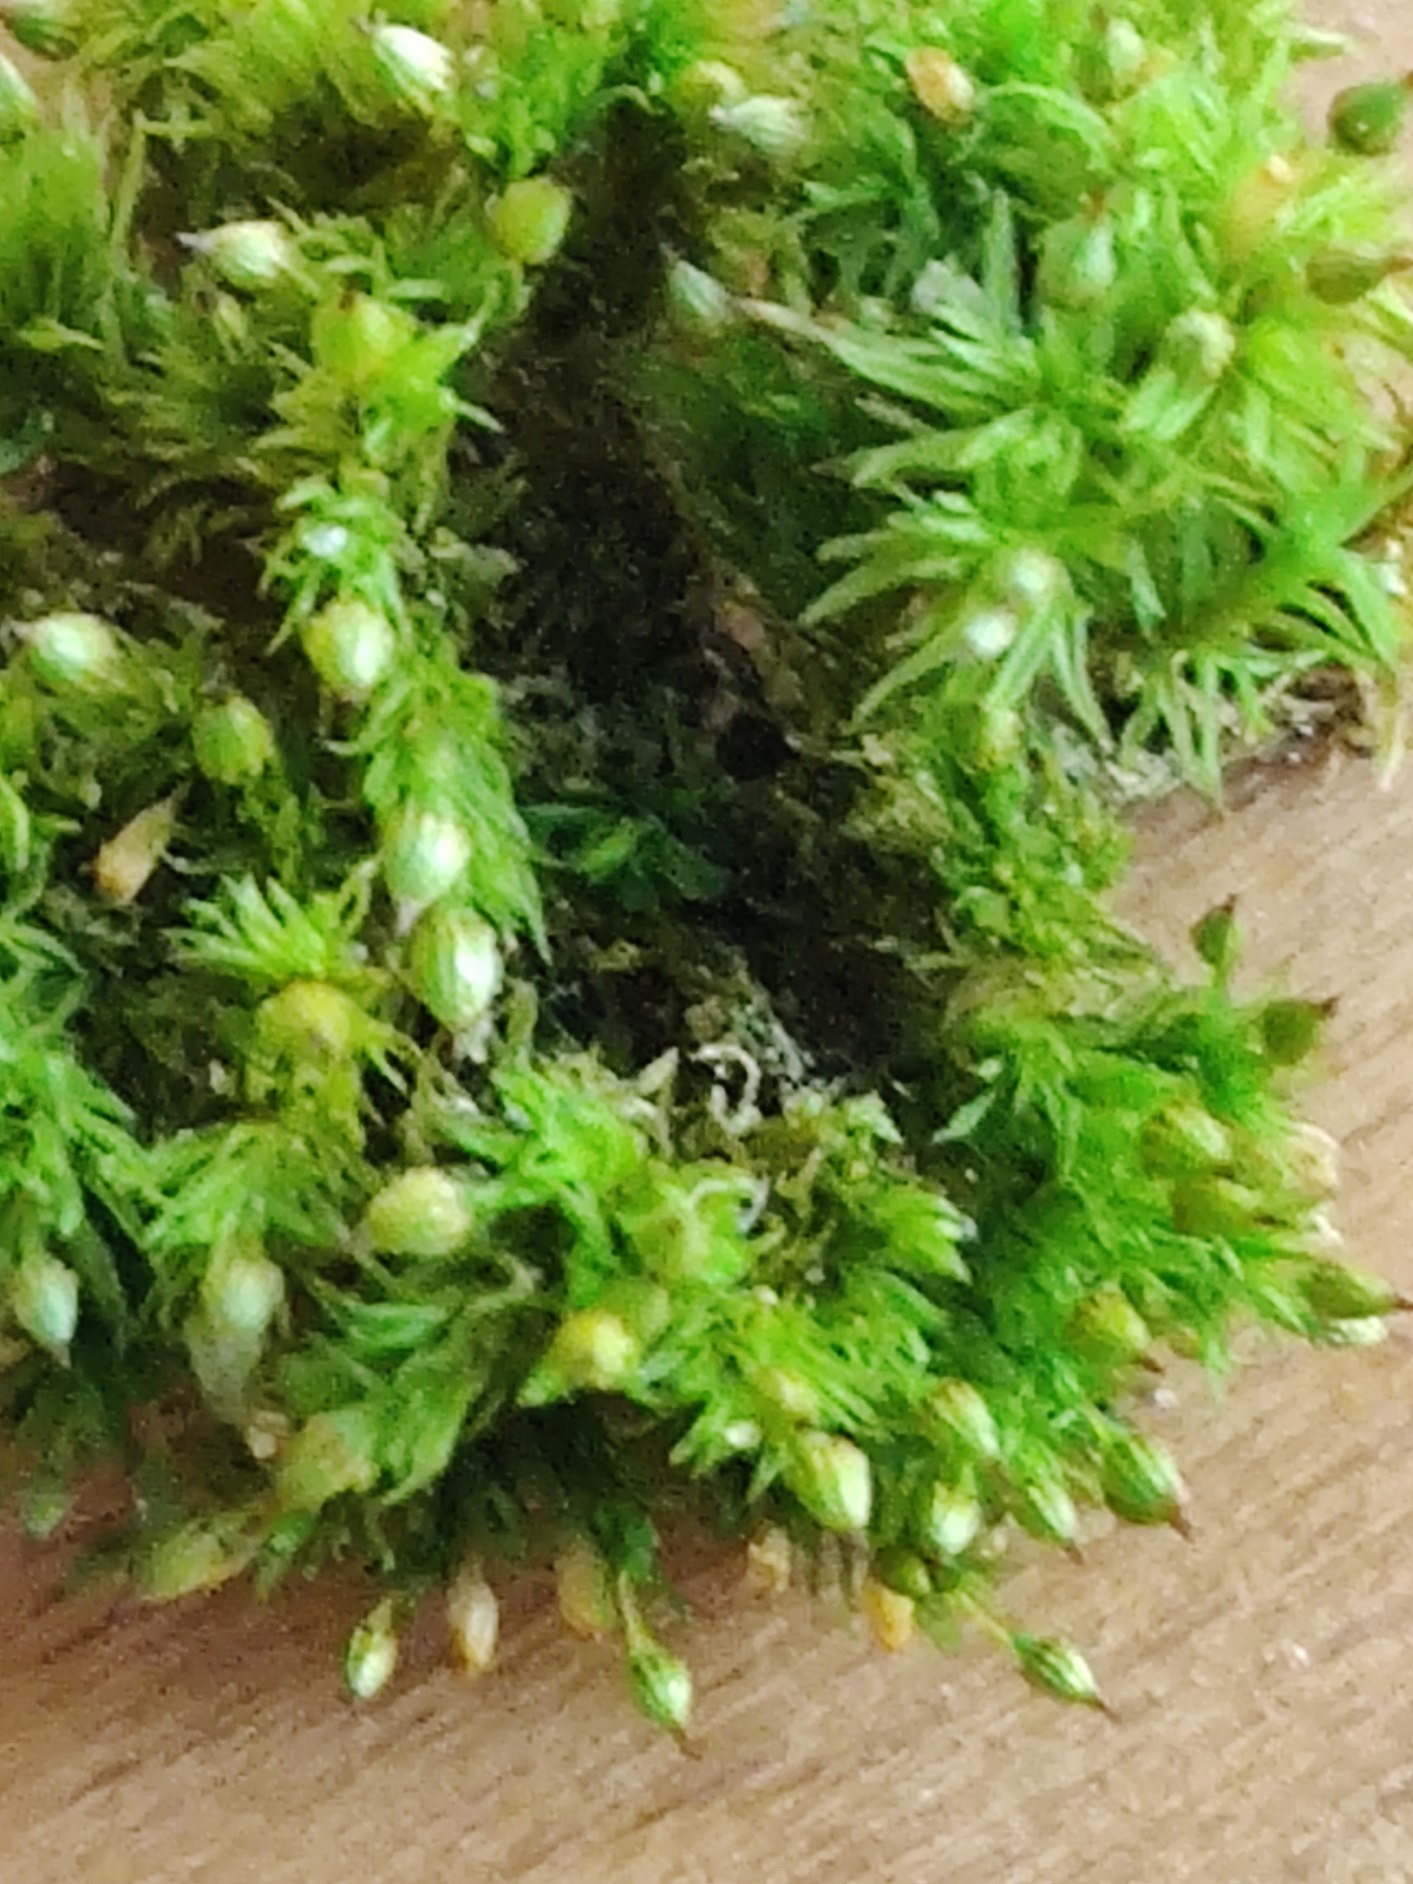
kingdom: Plantae
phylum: Bryophyta
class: Bryopsida
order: Orthotrichales
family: Orthotrichaceae
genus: Orthotrichum
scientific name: Orthotrichum pulchellum
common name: Smuk furehætte
